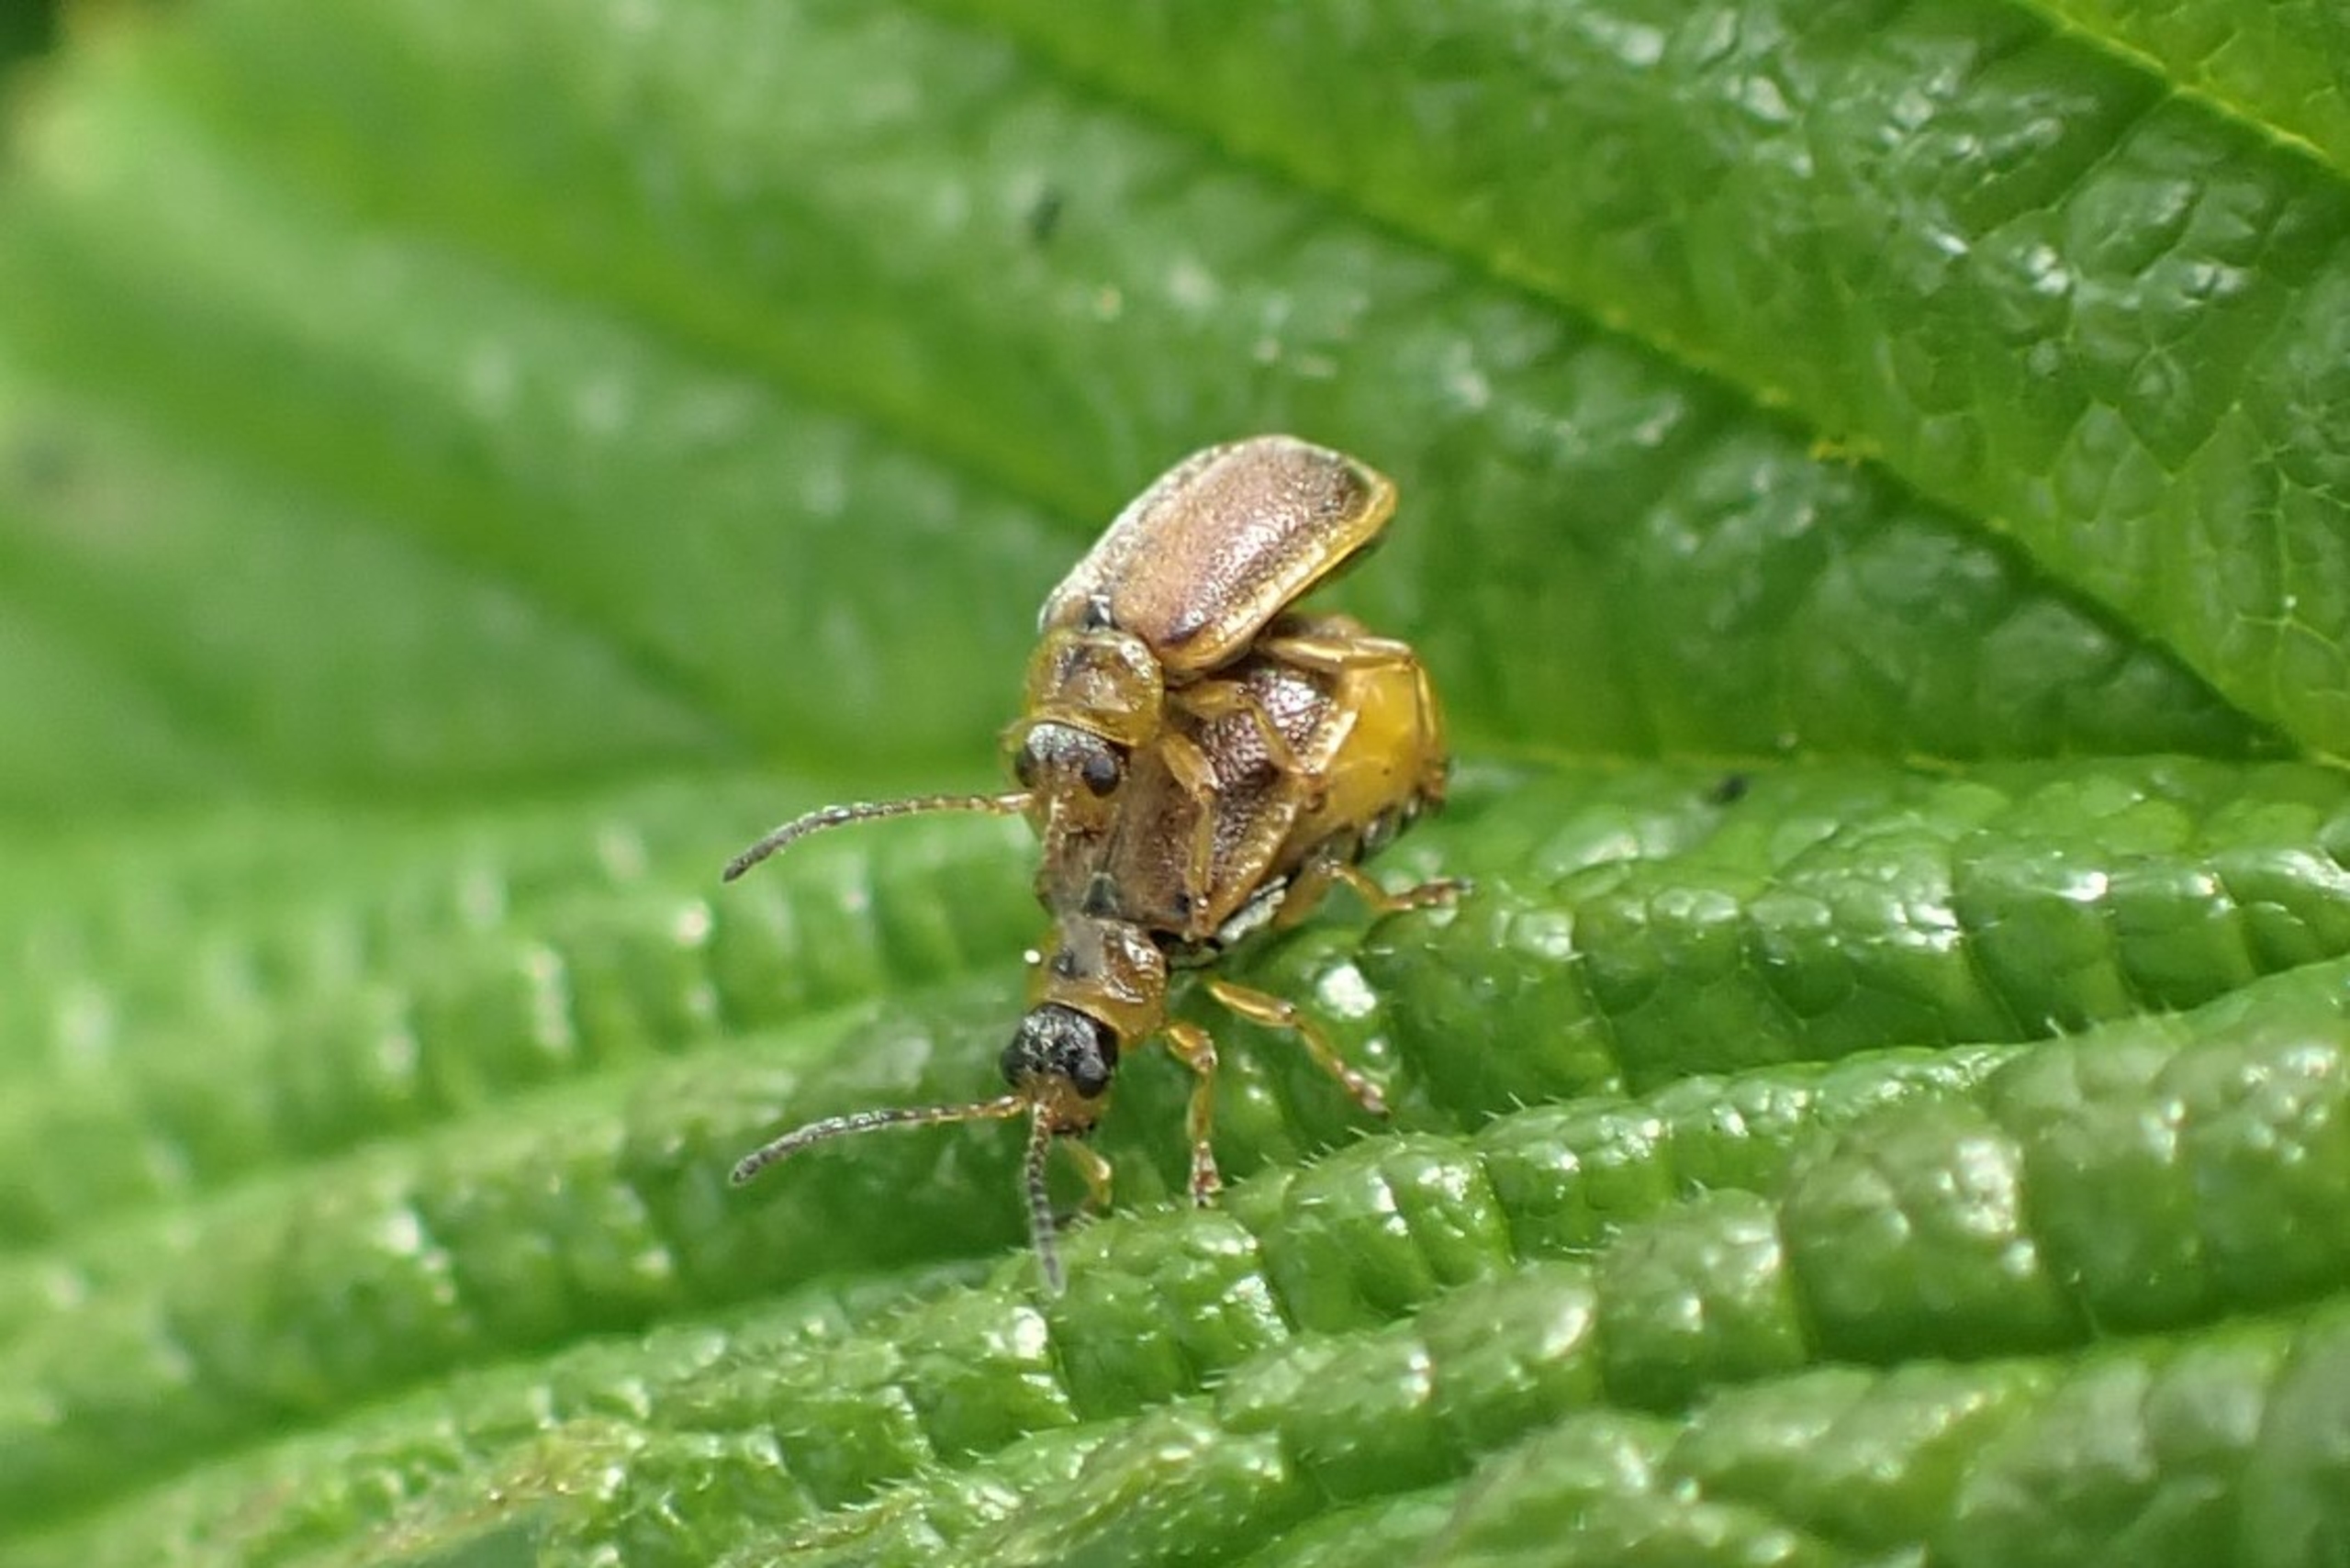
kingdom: Animalia
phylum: Arthropoda
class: Insecta
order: Coleoptera
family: Chrysomelidae
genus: Galerucella
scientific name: Galerucella tenella
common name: Jordbærbladbille
